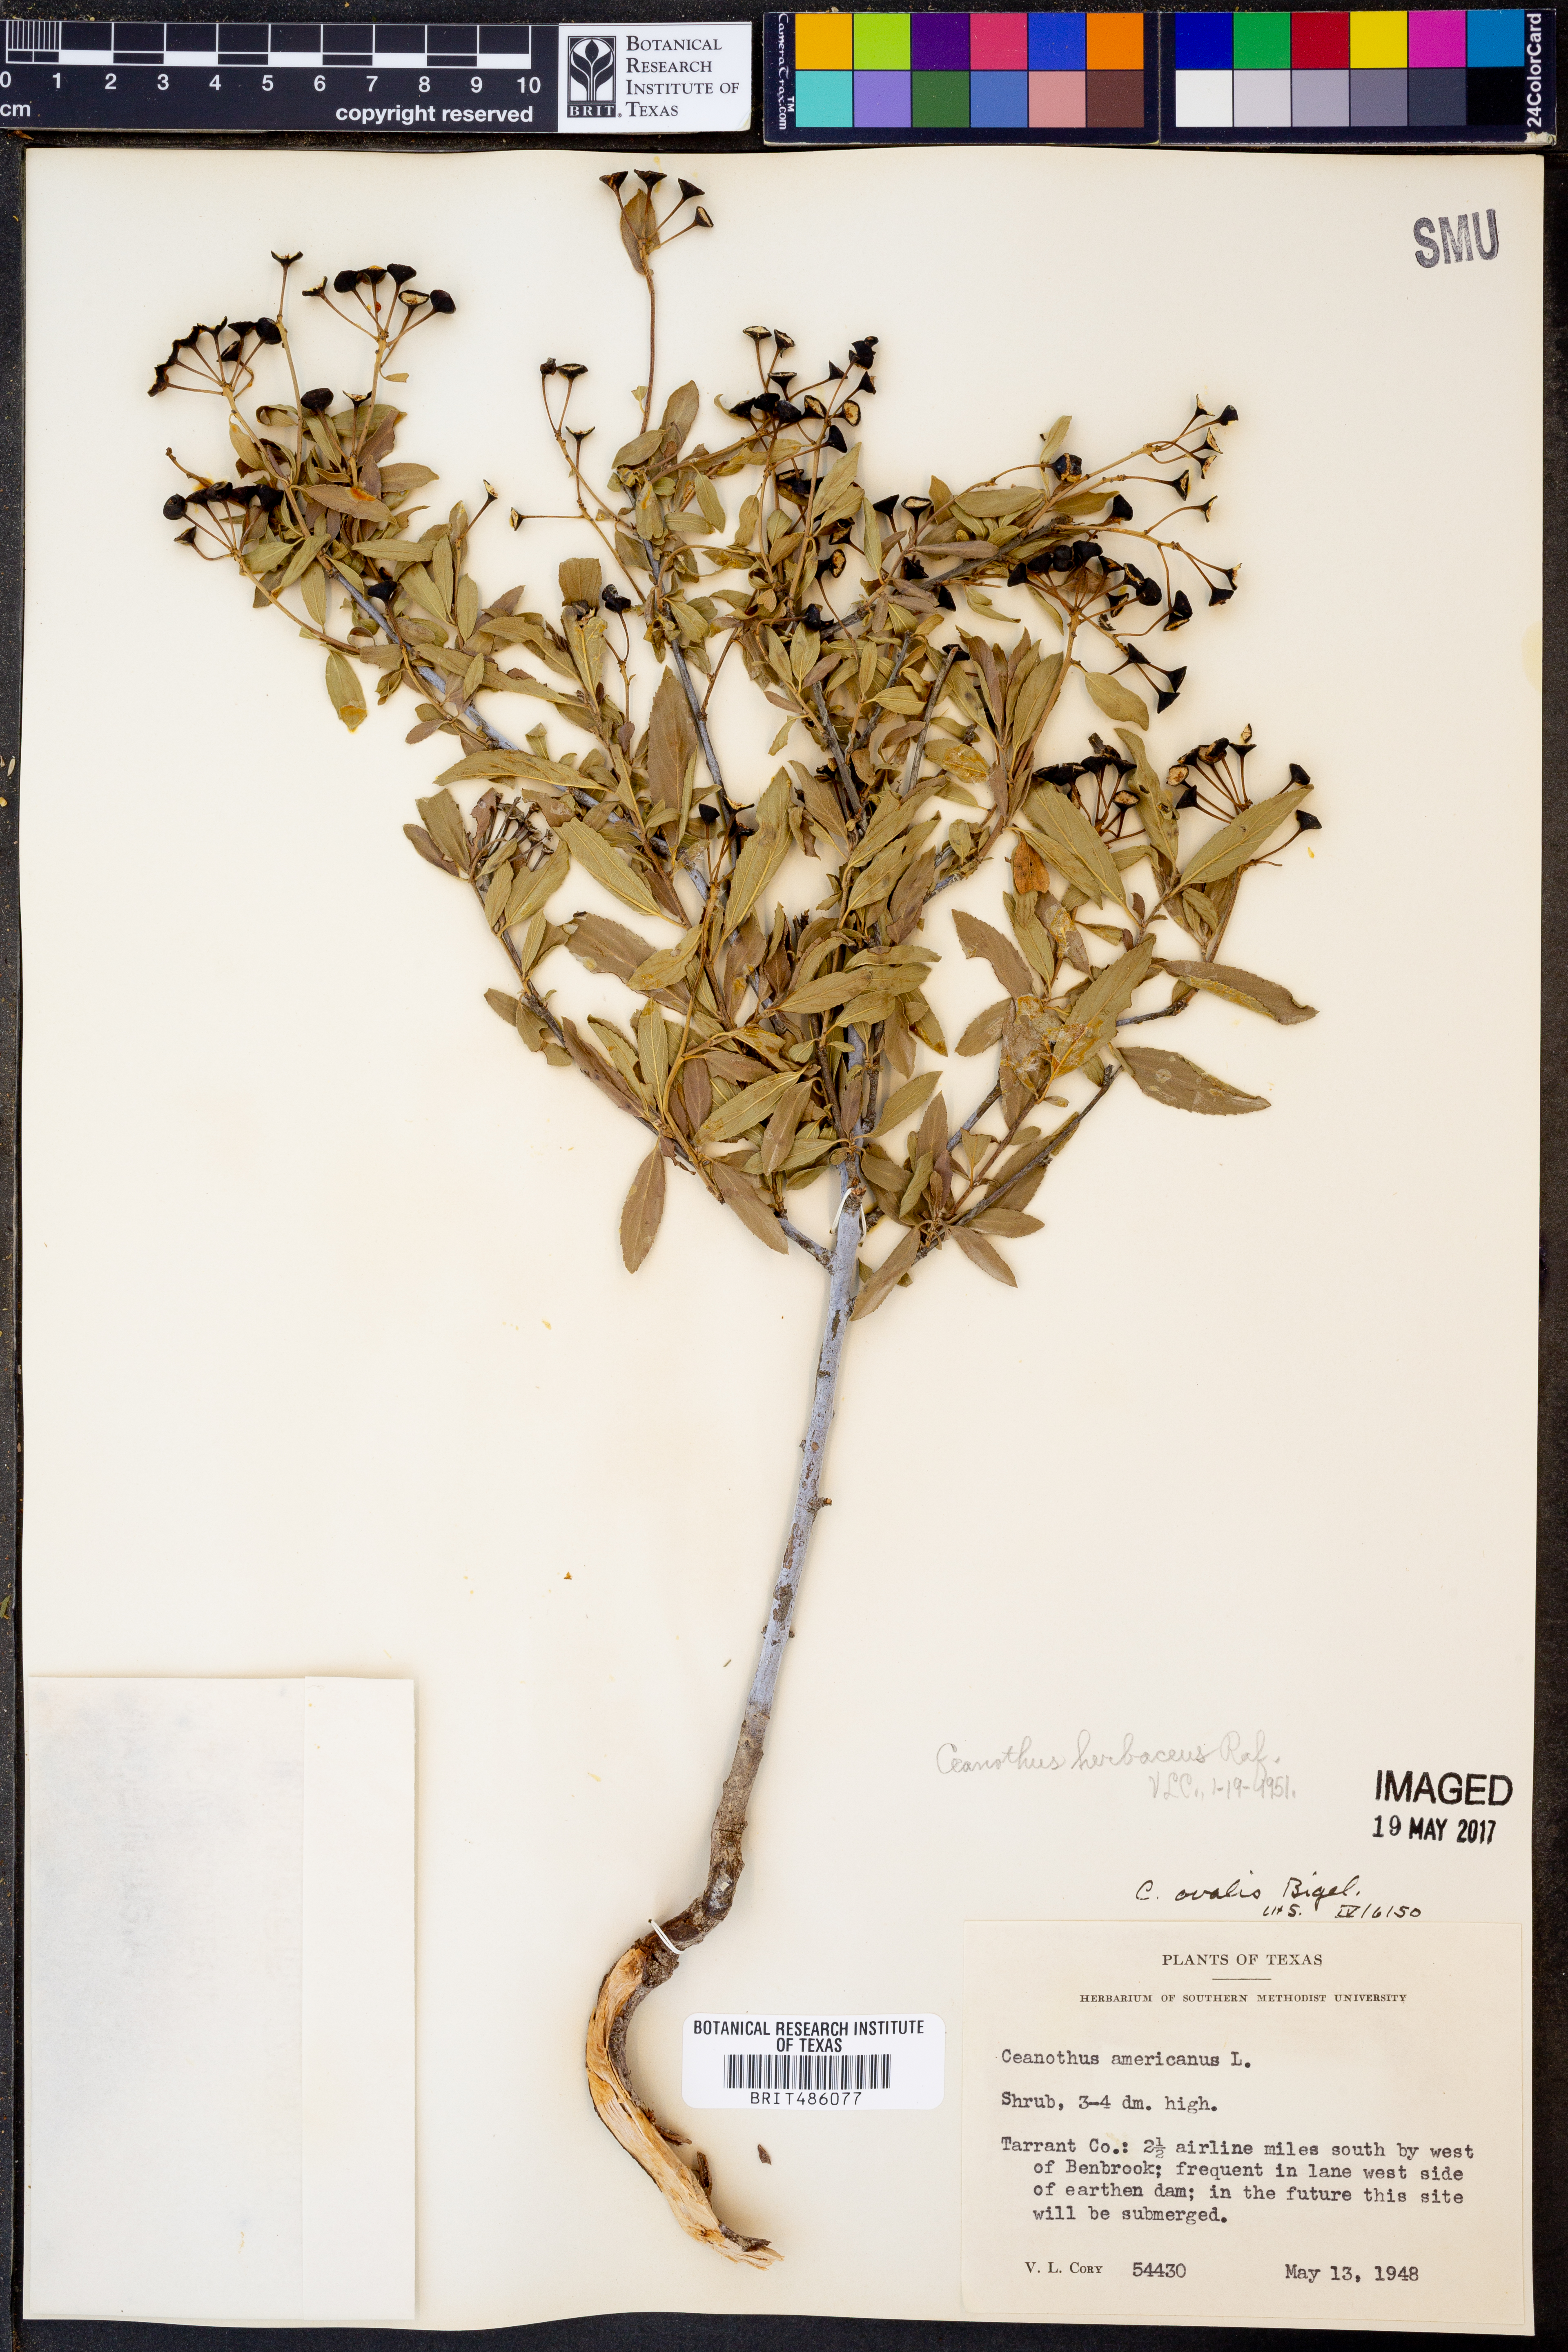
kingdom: Plantae
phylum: Tracheophyta
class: Magnoliopsida
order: Rosales
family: Rhamnaceae
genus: Ceanothus
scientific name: Ceanothus americanus
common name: Redroot
